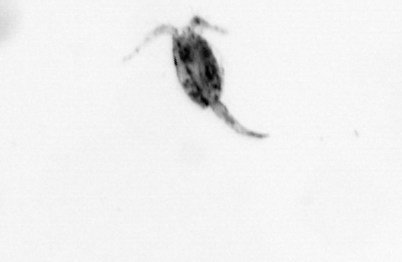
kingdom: Animalia
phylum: Arthropoda
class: Copepoda
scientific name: Copepoda
